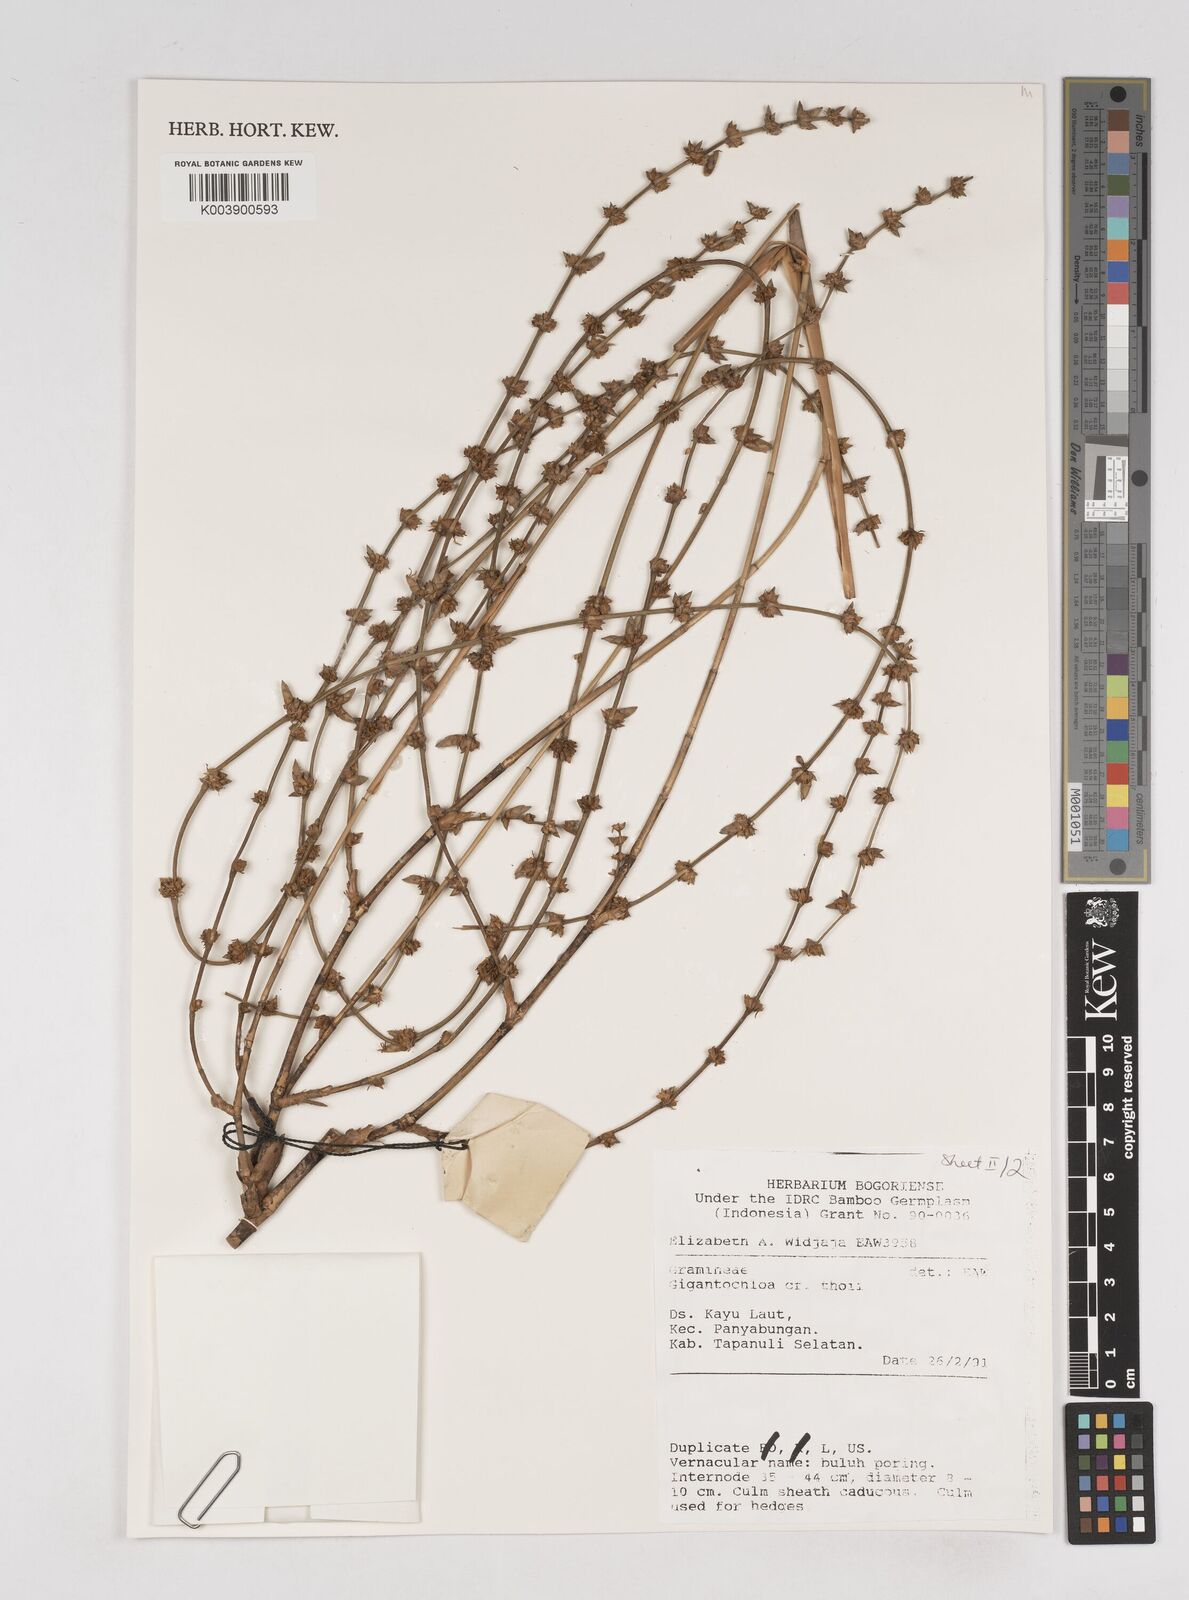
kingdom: Plantae
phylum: Tracheophyta
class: Liliopsida
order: Poales
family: Poaceae
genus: Gigantochloa
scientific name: Gigantochloa thoi
